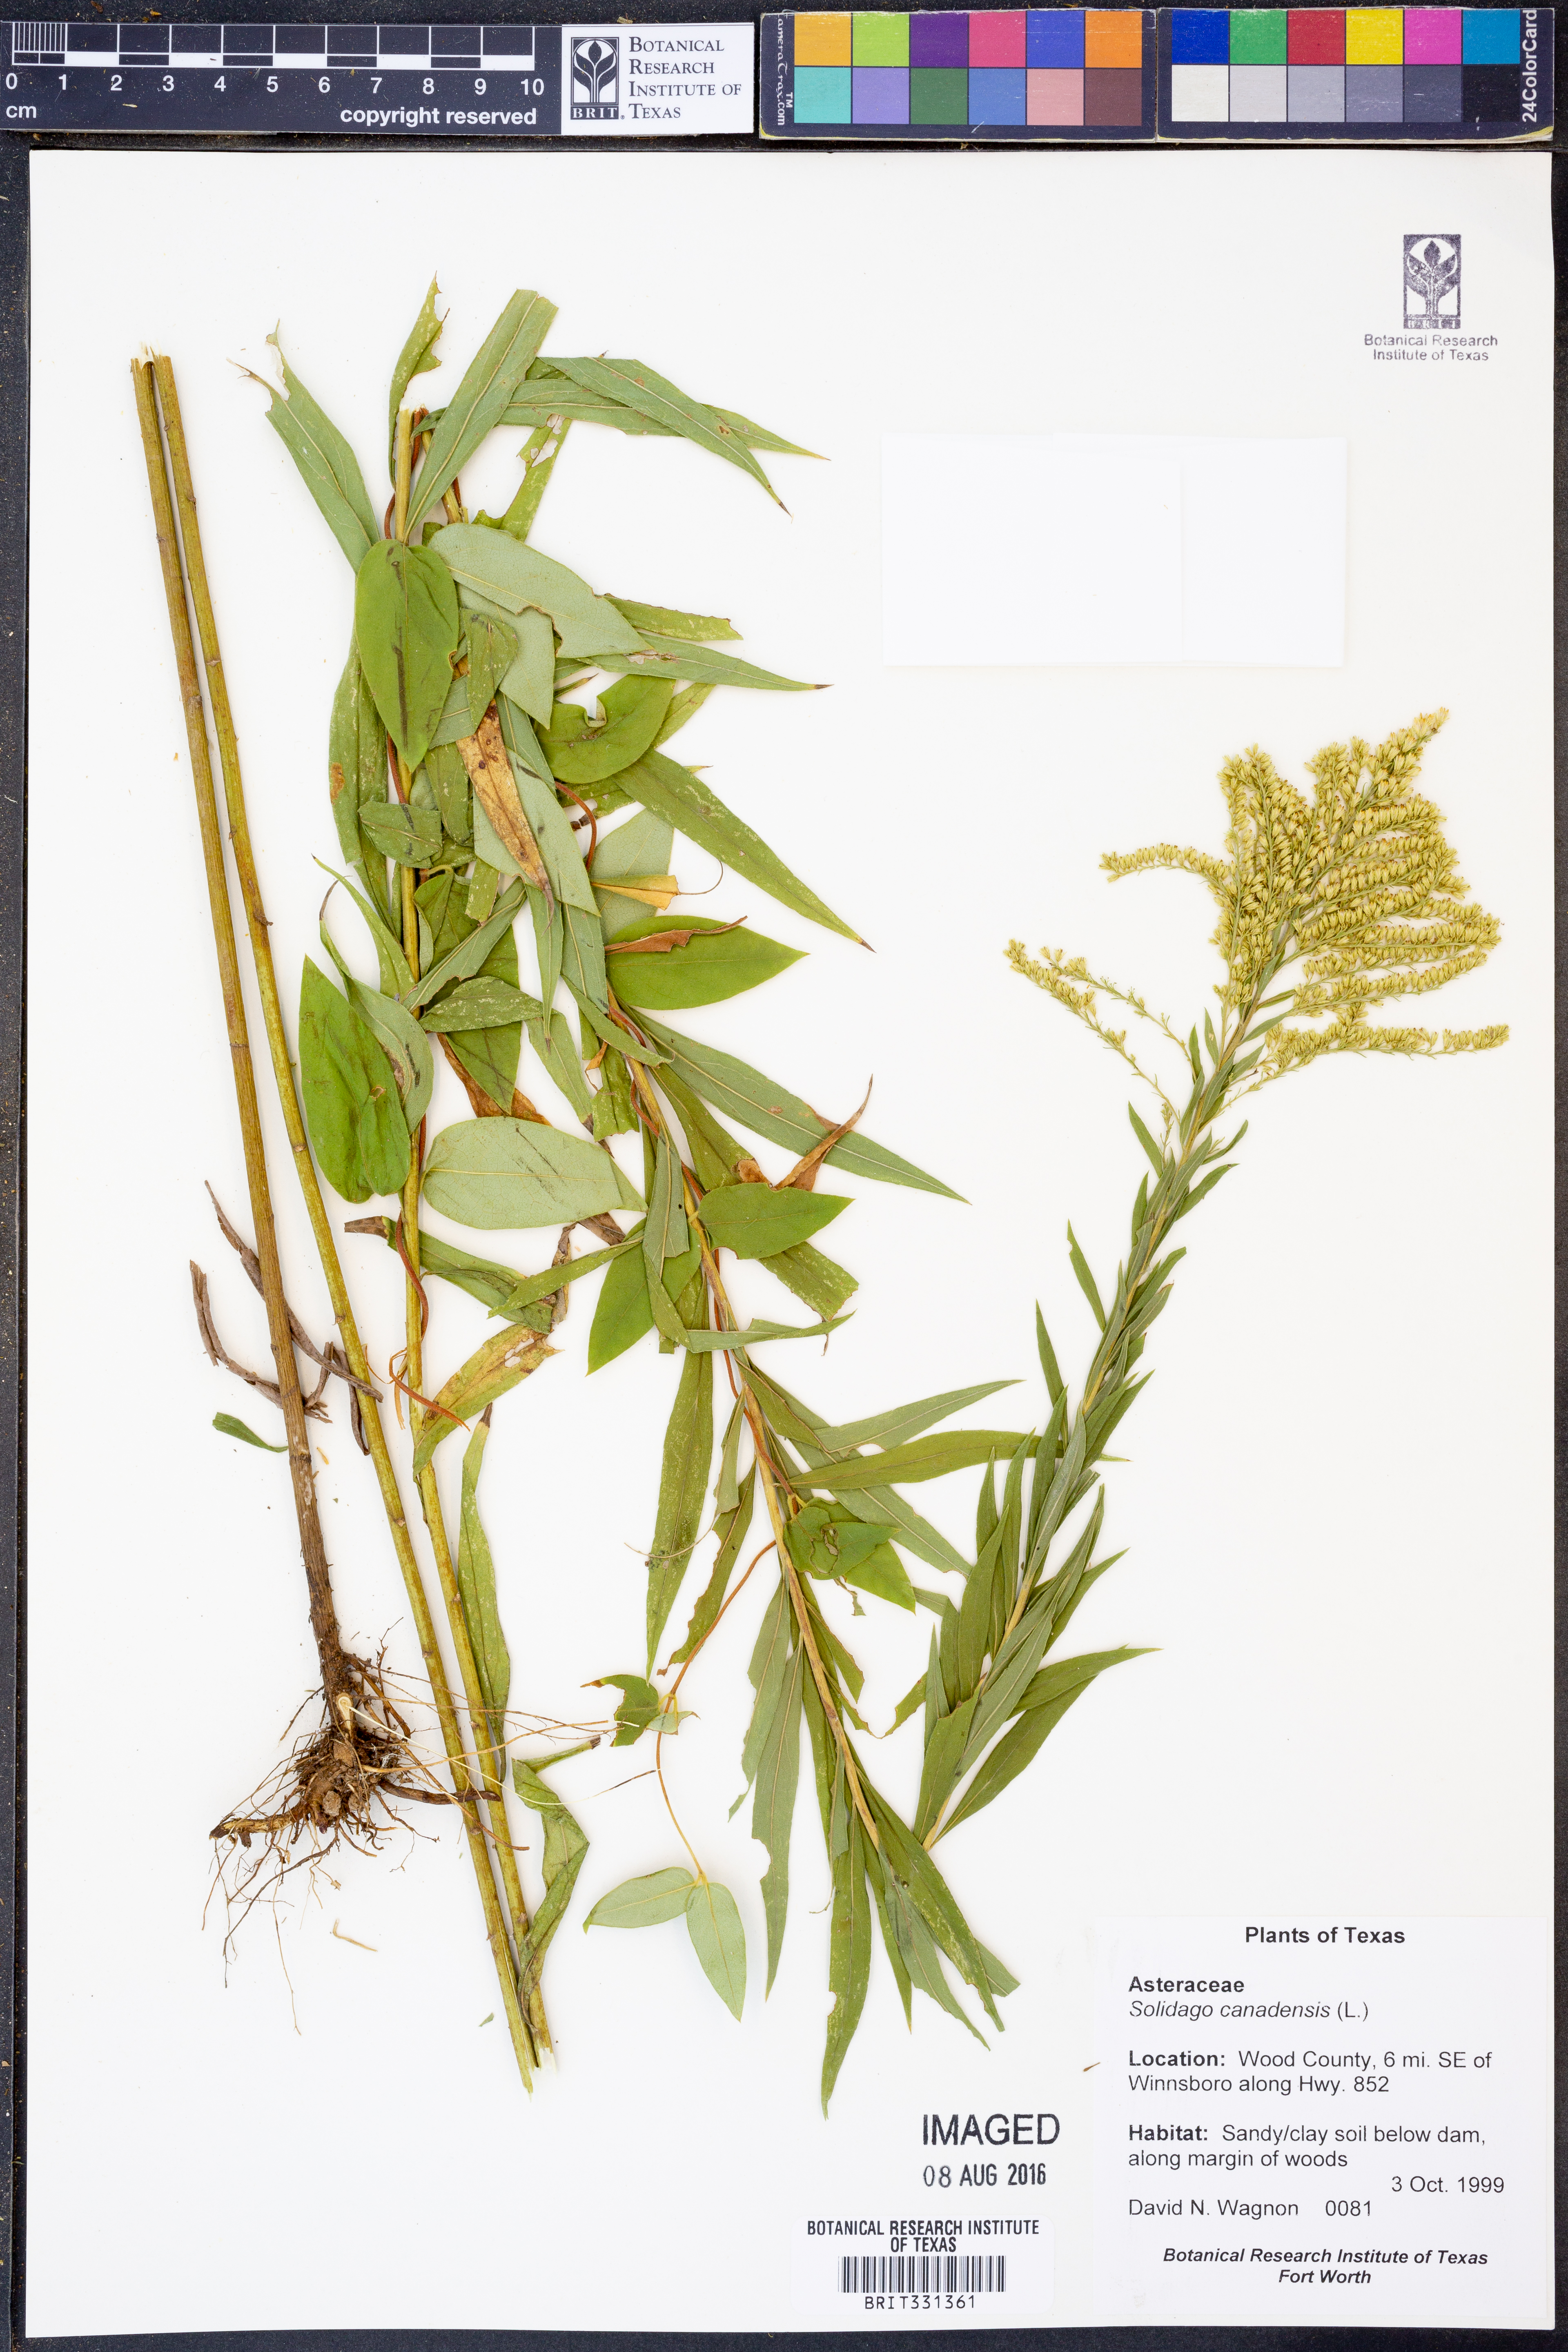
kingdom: Plantae
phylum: Tracheophyta
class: Magnoliopsida
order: Asterales
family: Asteraceae
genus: Solidago
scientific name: Solidago canadensis
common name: Canada goldenrod
